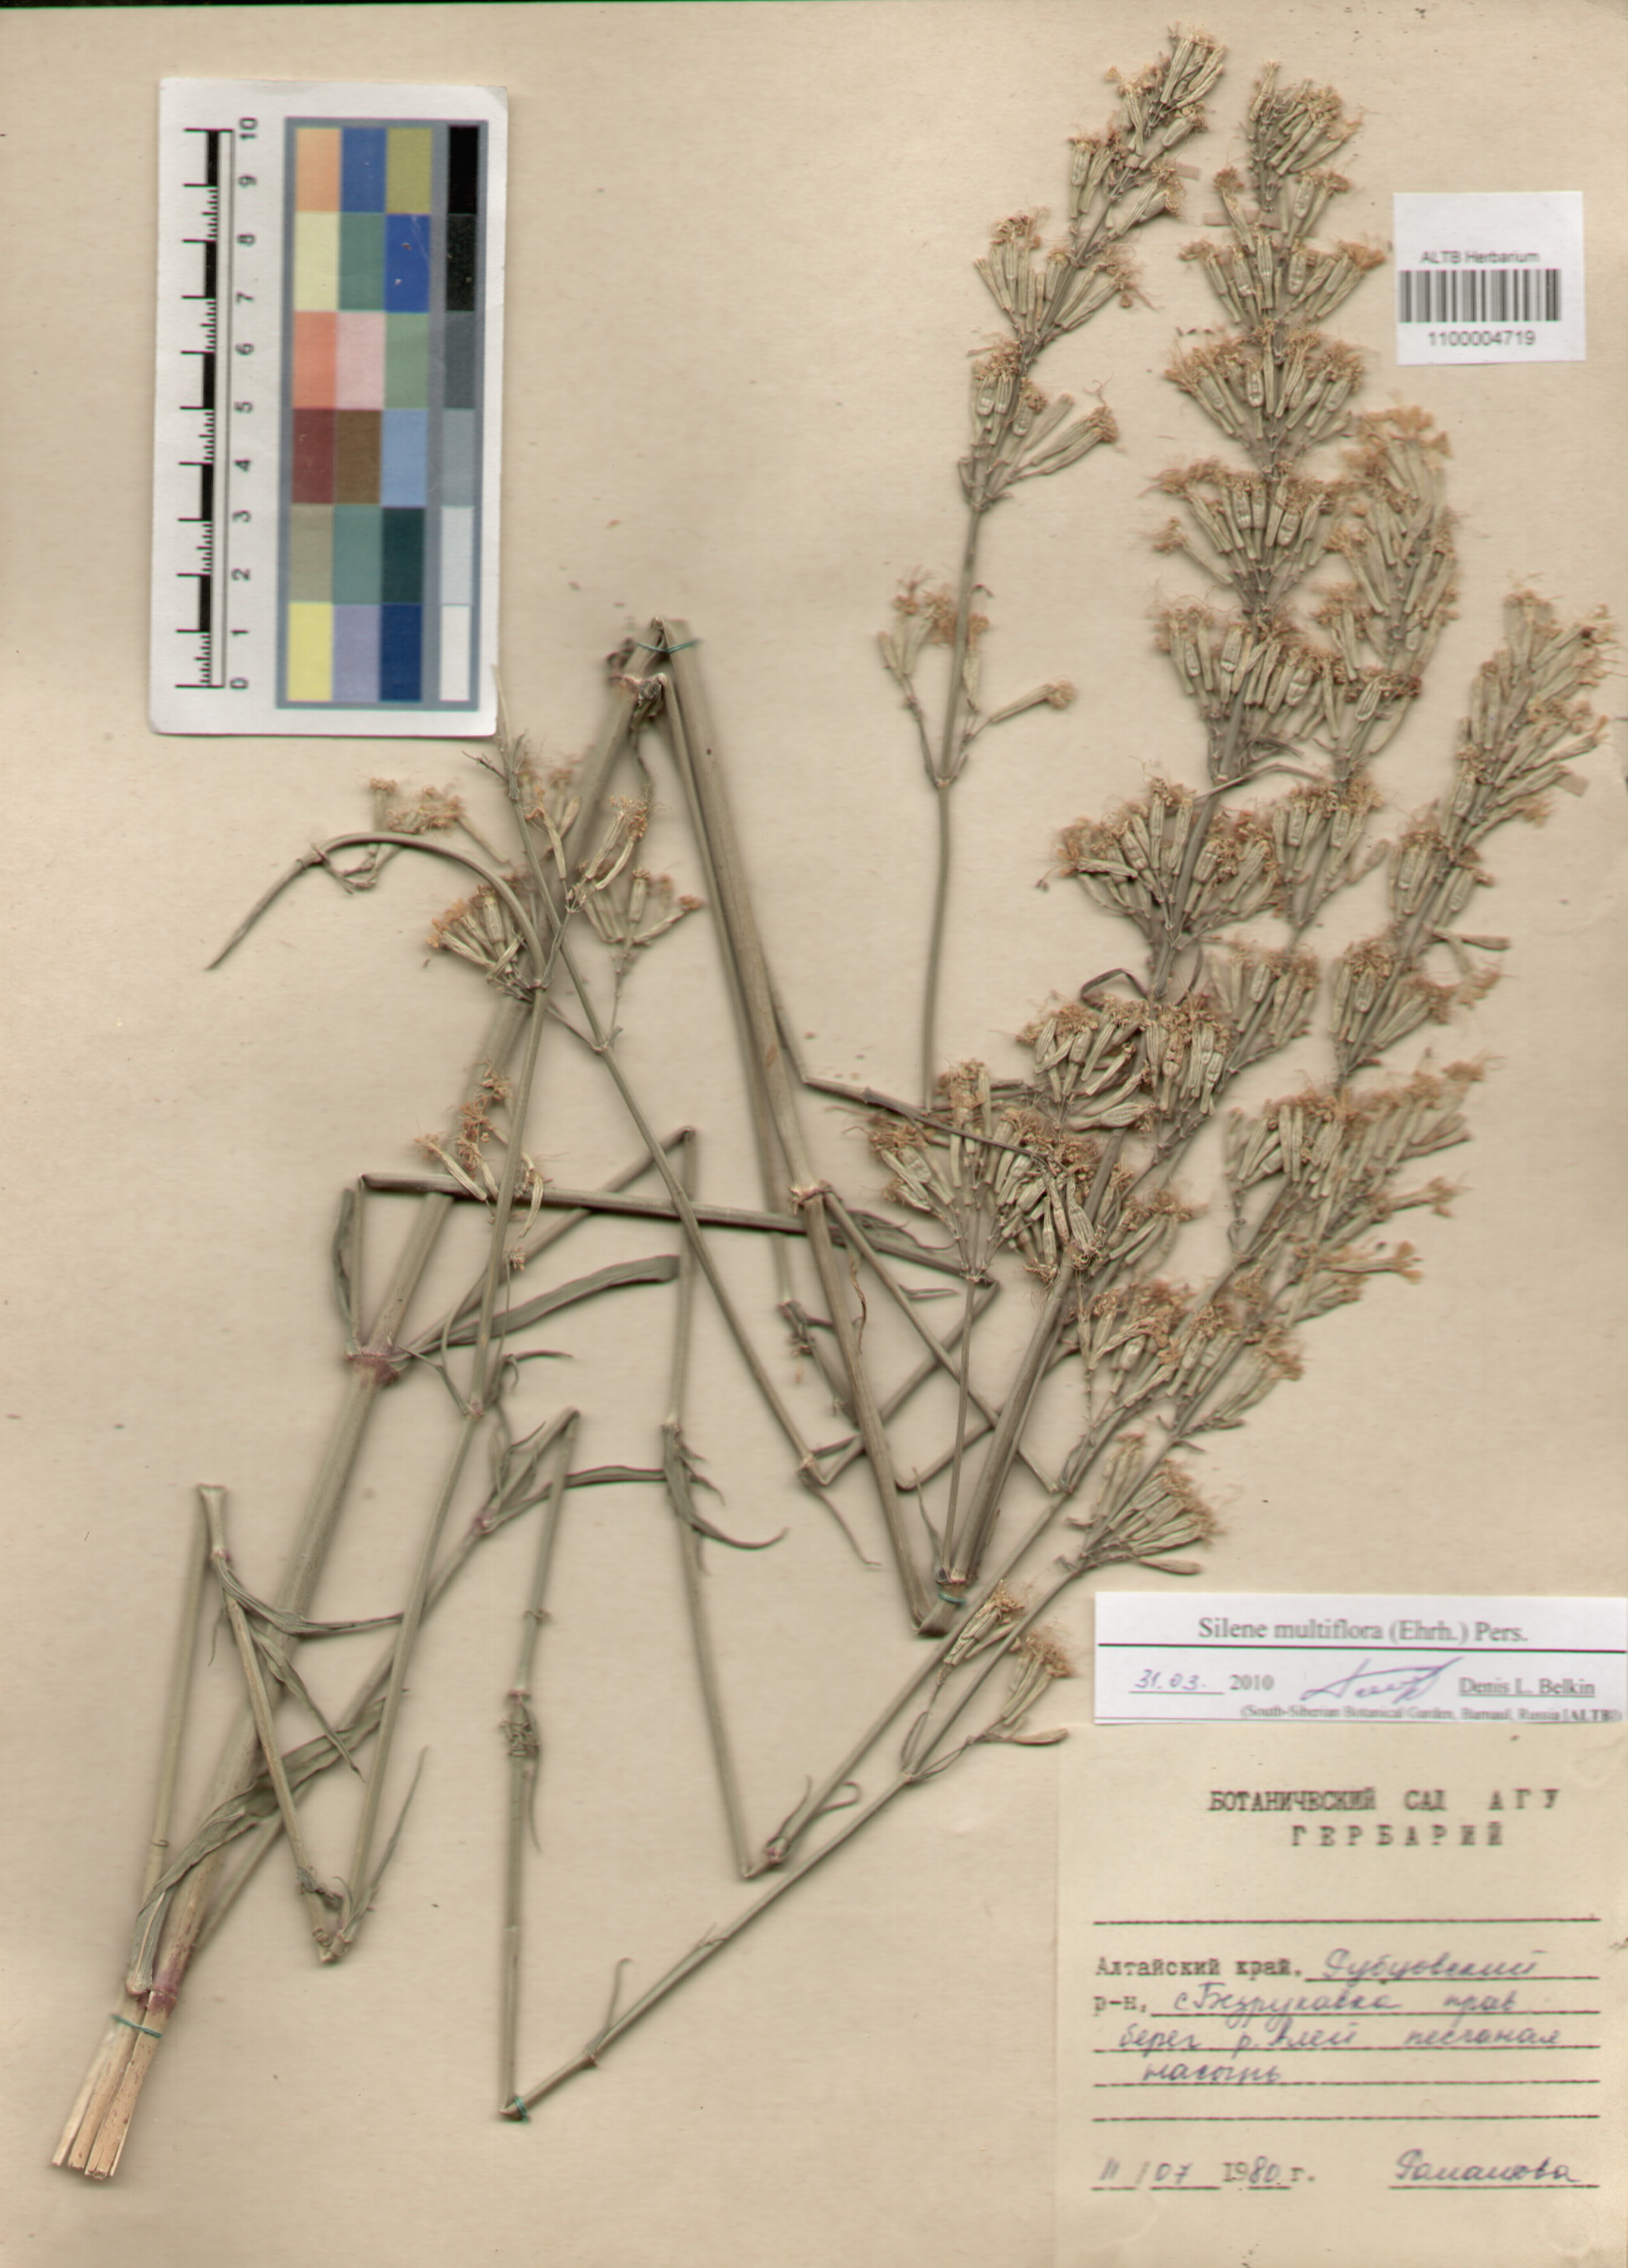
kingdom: Plantae
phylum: Tracheophyta
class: Magnoliopsida
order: Caryophyllales
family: Caryophyllaceae
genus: Silene
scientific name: Silene multiflora
